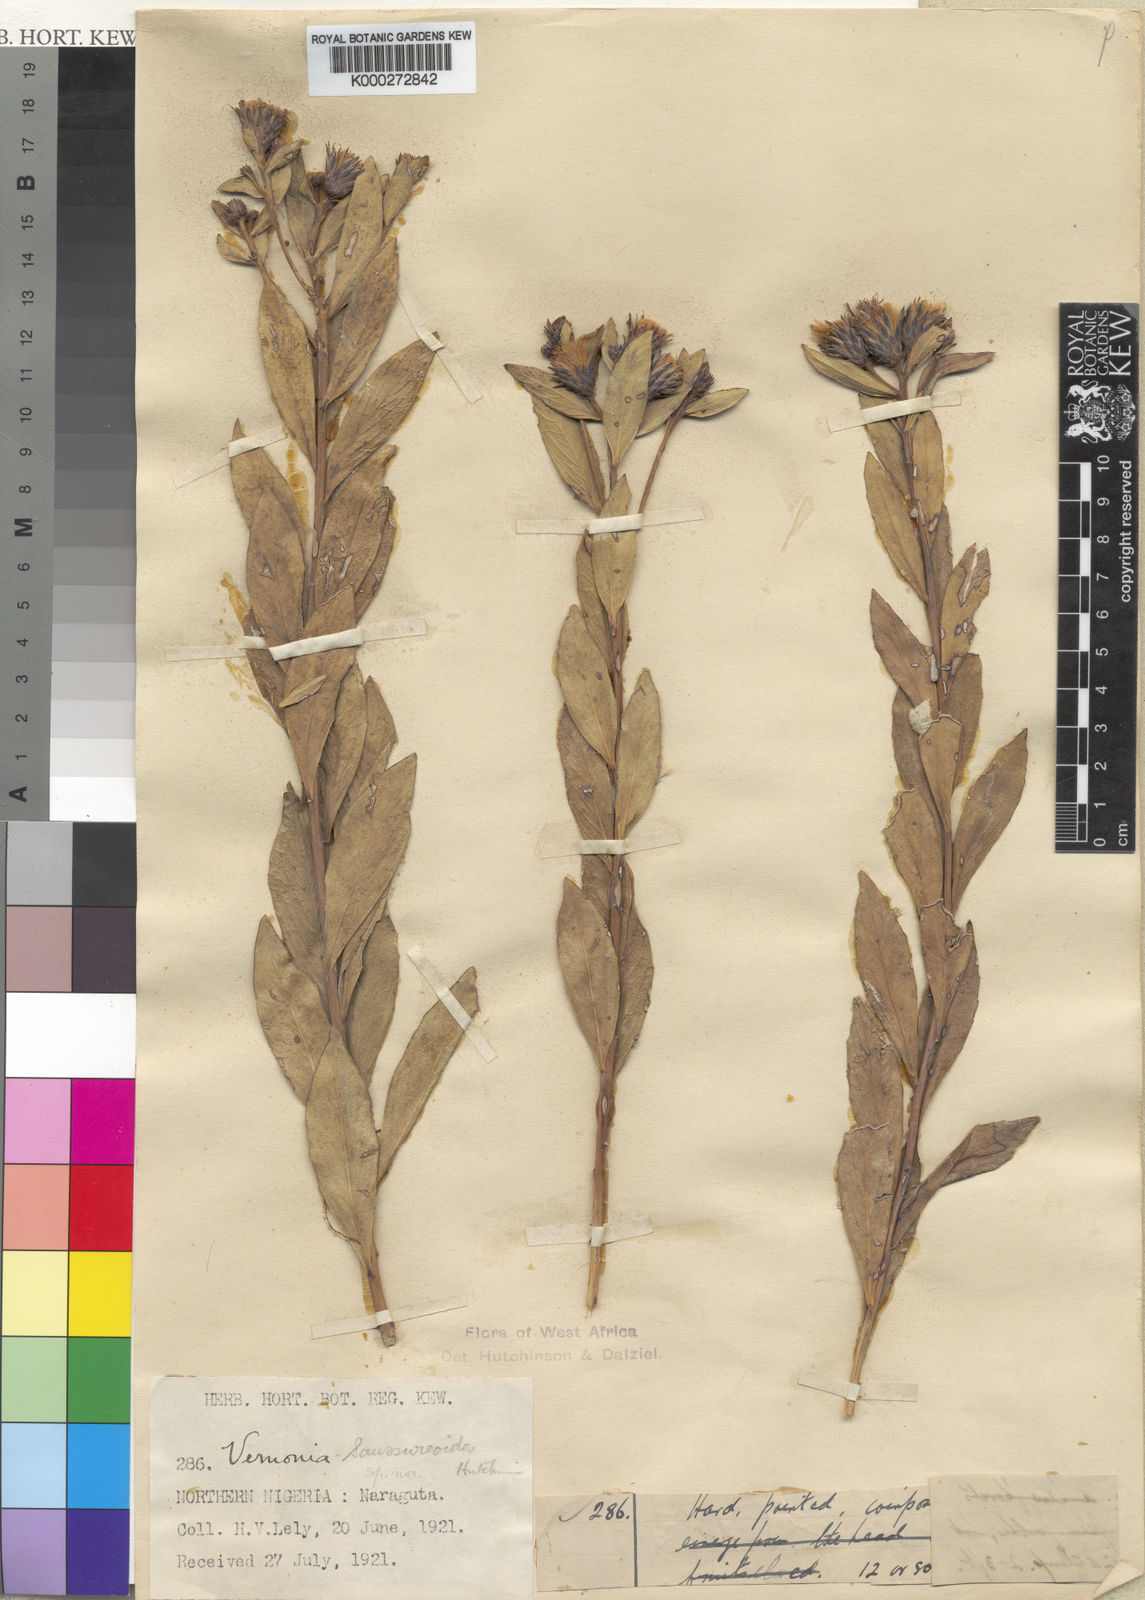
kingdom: Plantae
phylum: Tracheophyta
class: Magnoliopsida
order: Asterales
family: Asteraceae
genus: Linzia
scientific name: Linzia infundibularis
